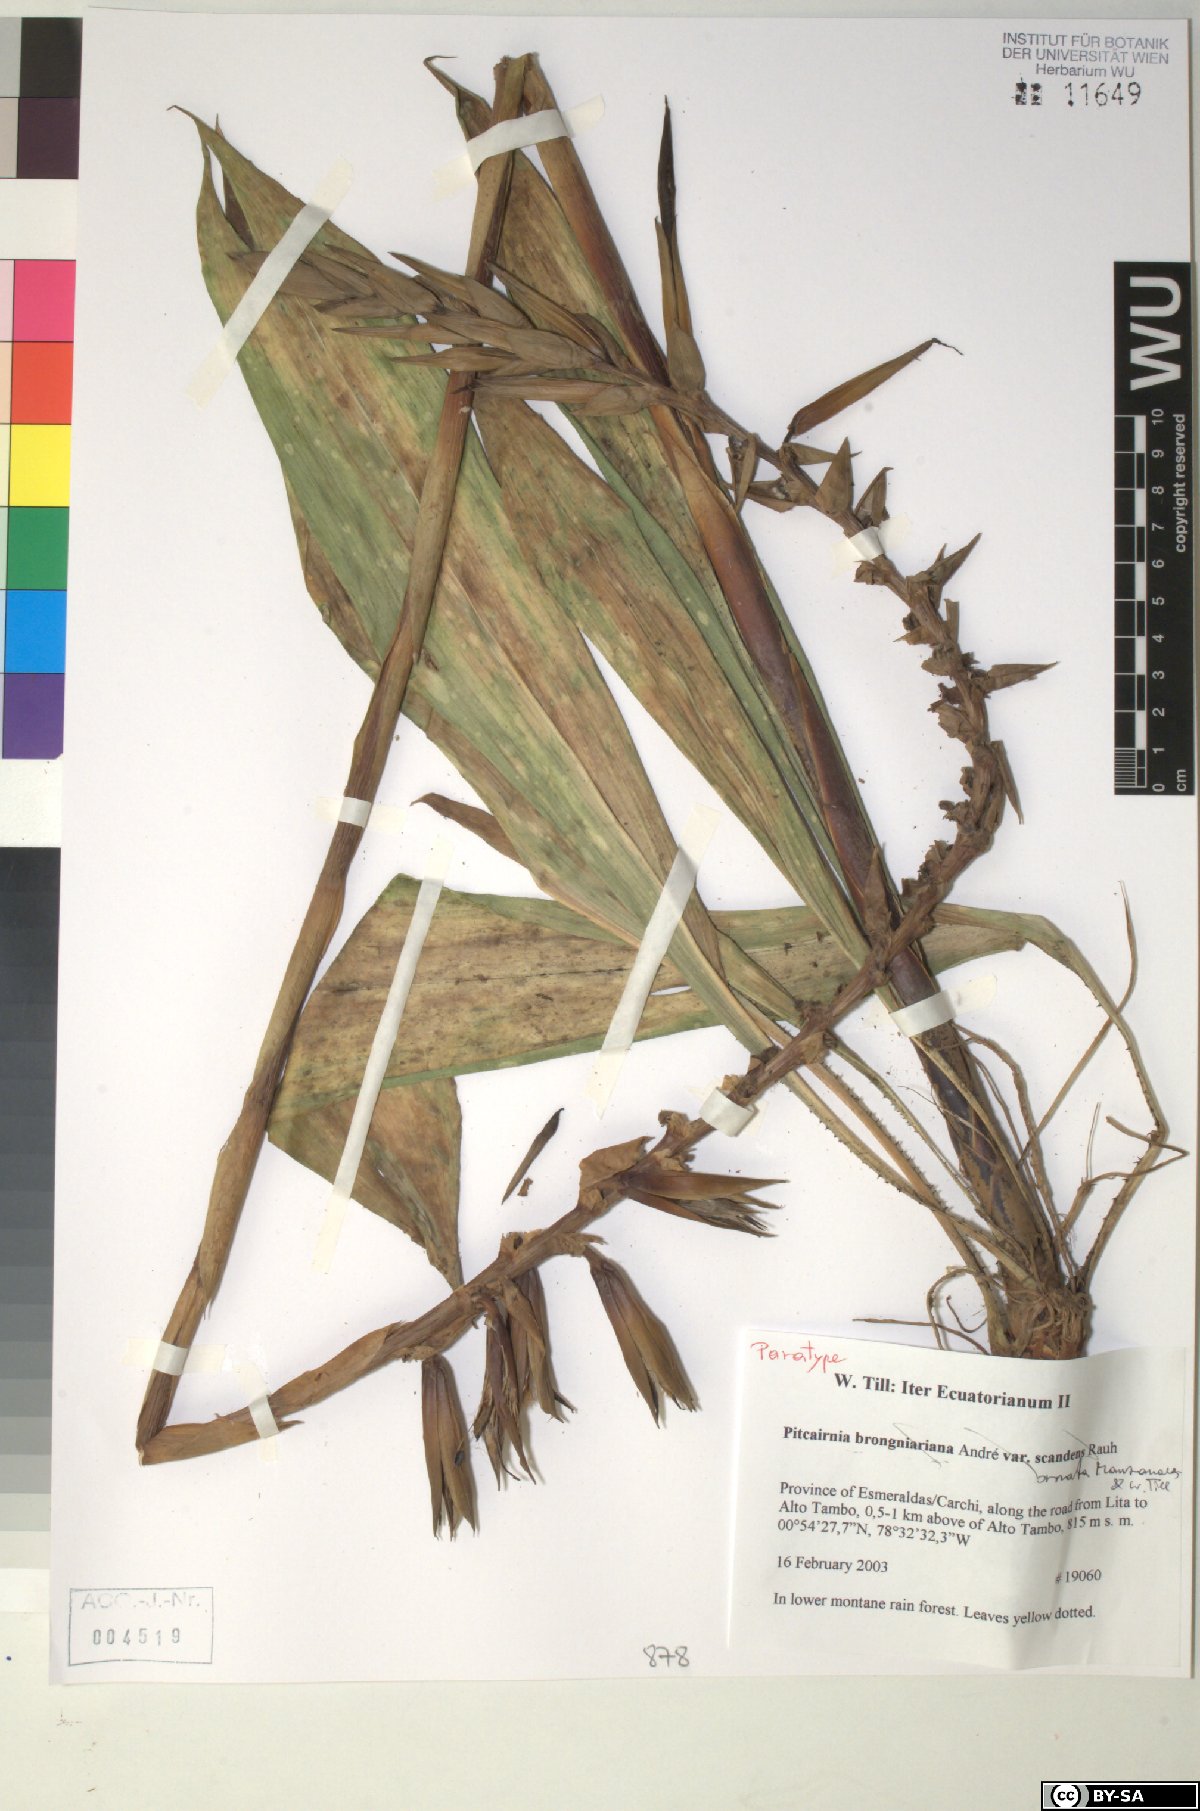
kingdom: Plantae
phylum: Tracheophyta
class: Liliopsida
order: Poales
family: Bromeliaceae
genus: Pitcairnia
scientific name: Pitcairnia brongniartiana
